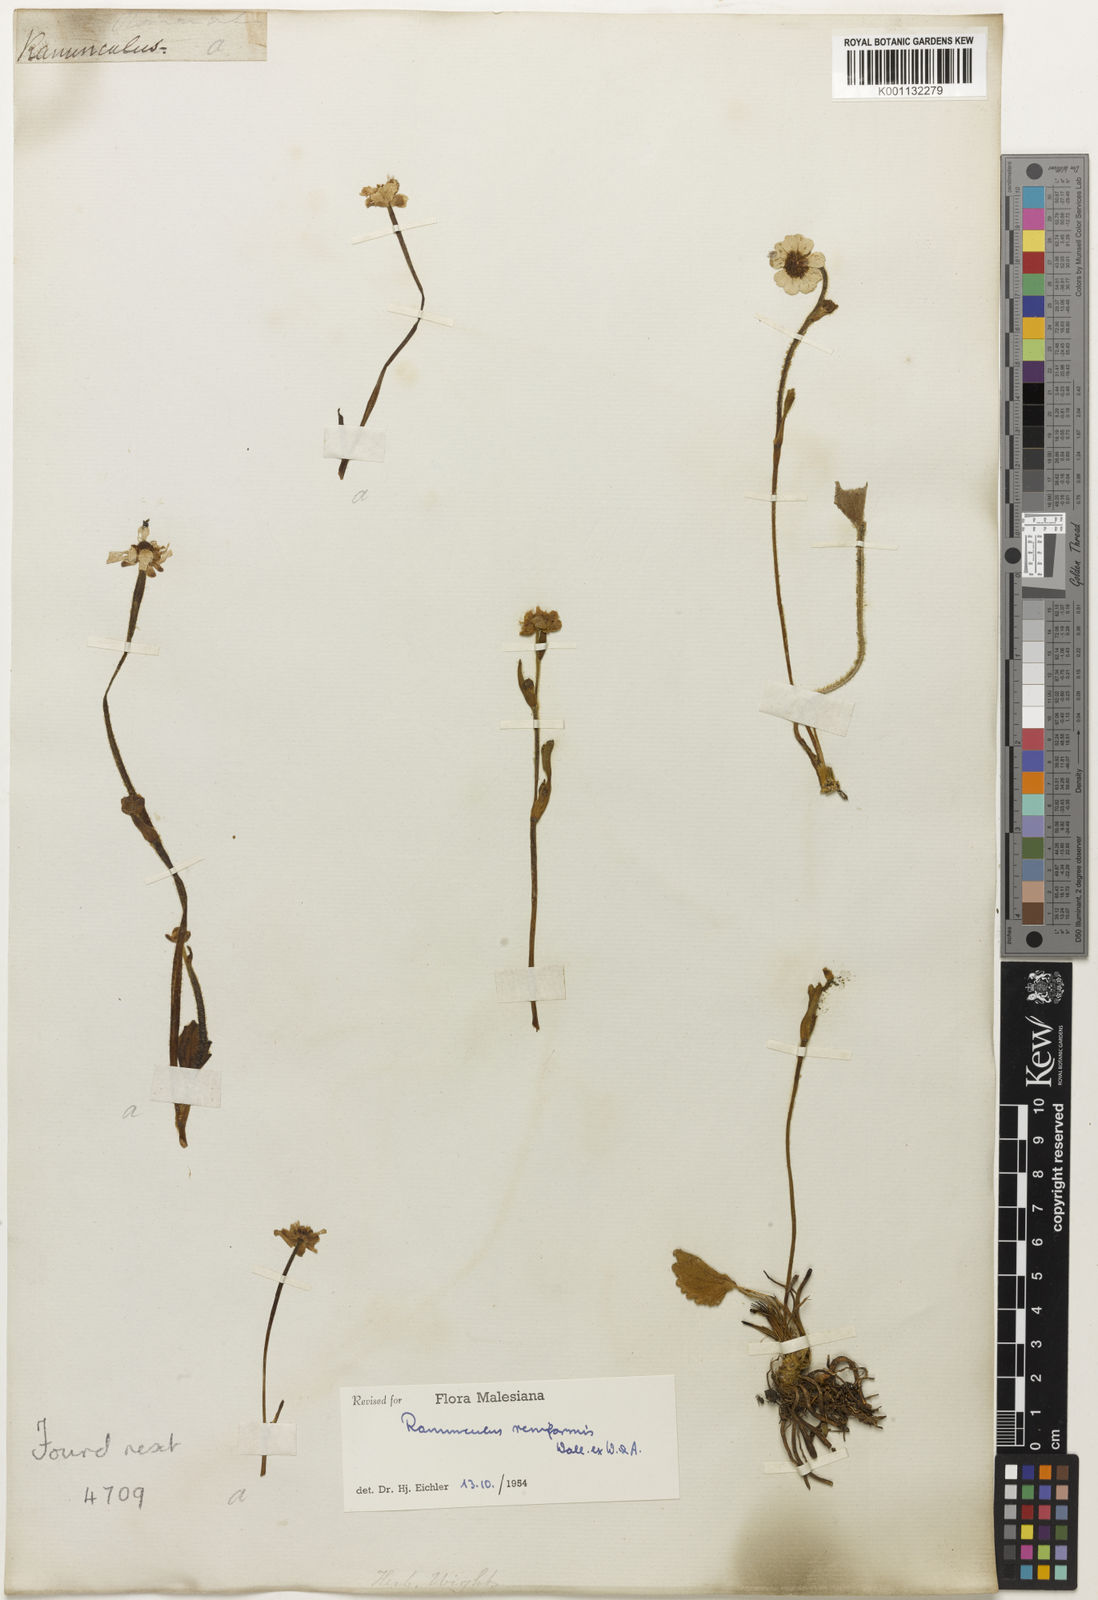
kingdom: Plantae
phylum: Tracheophyta
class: Magnoliopsida
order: Ranunculales
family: Ranunculaceae
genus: Ranunculus
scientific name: Ranunculus
